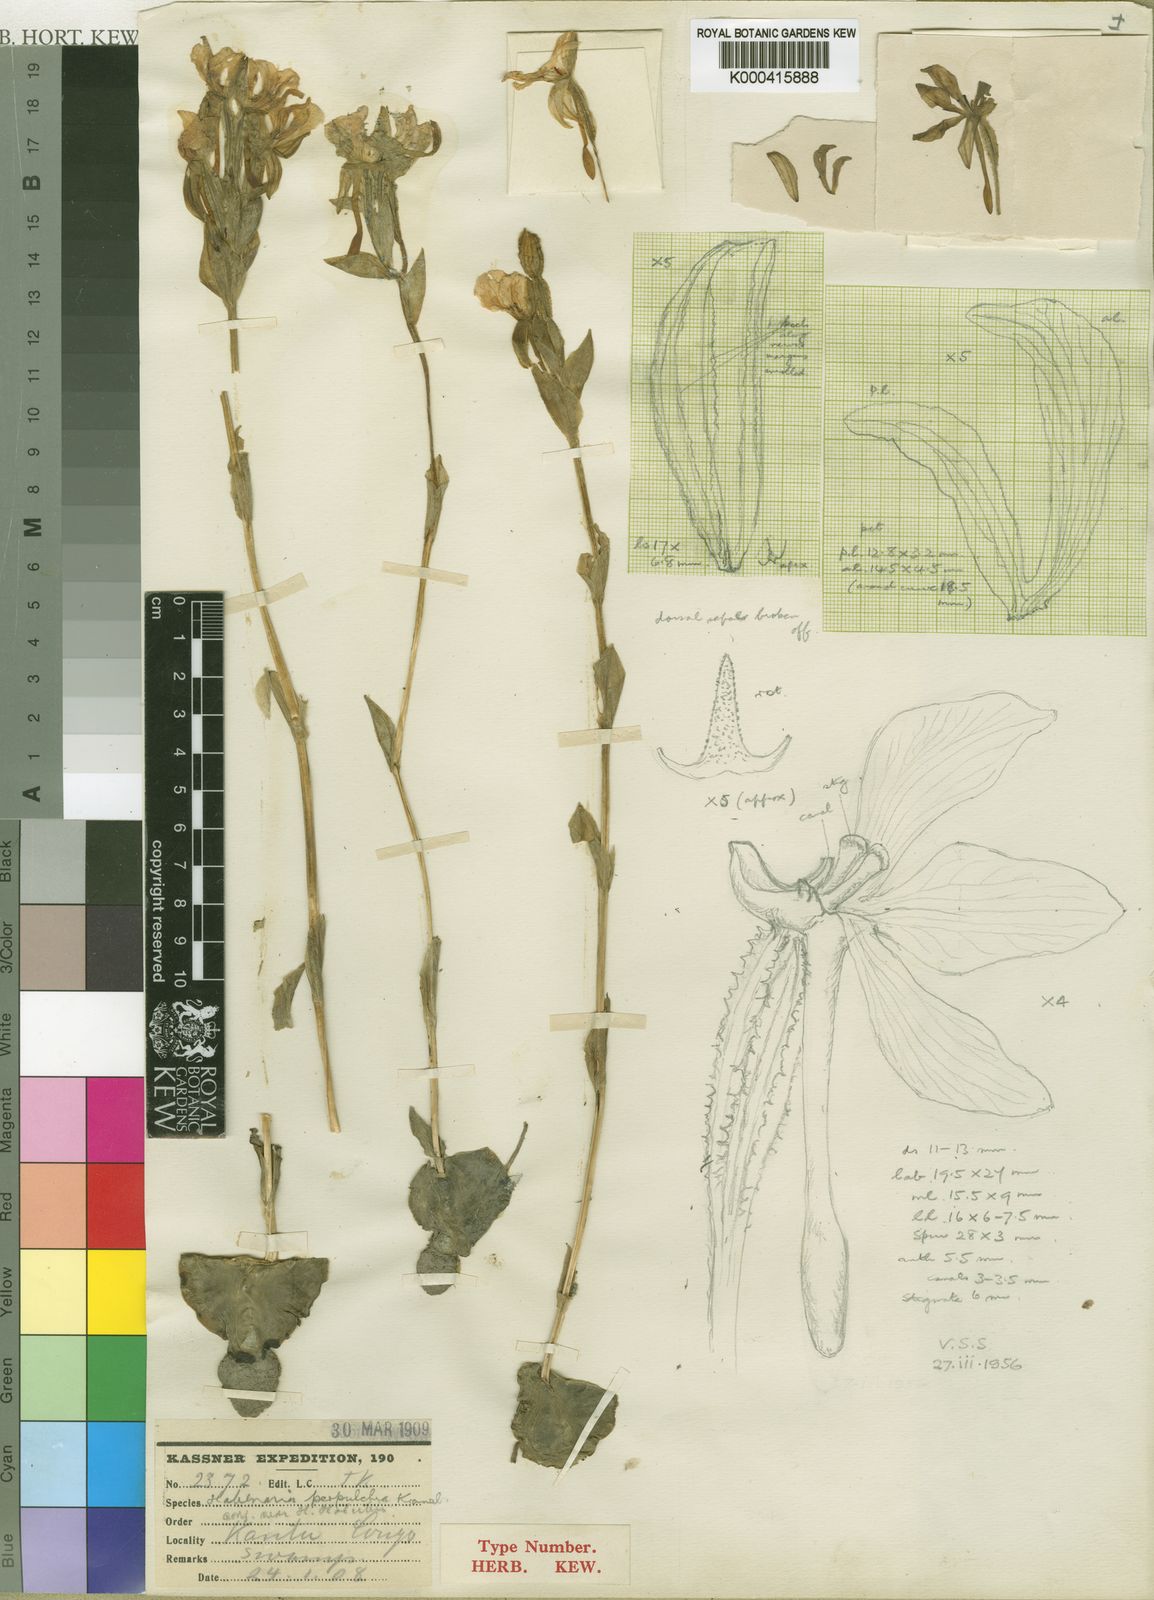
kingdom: Plantae
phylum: Tracheophyta
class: Liliopsida
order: Asparagales
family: Orchidaceae
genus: Habenaria
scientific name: Habenaria perpulchra
